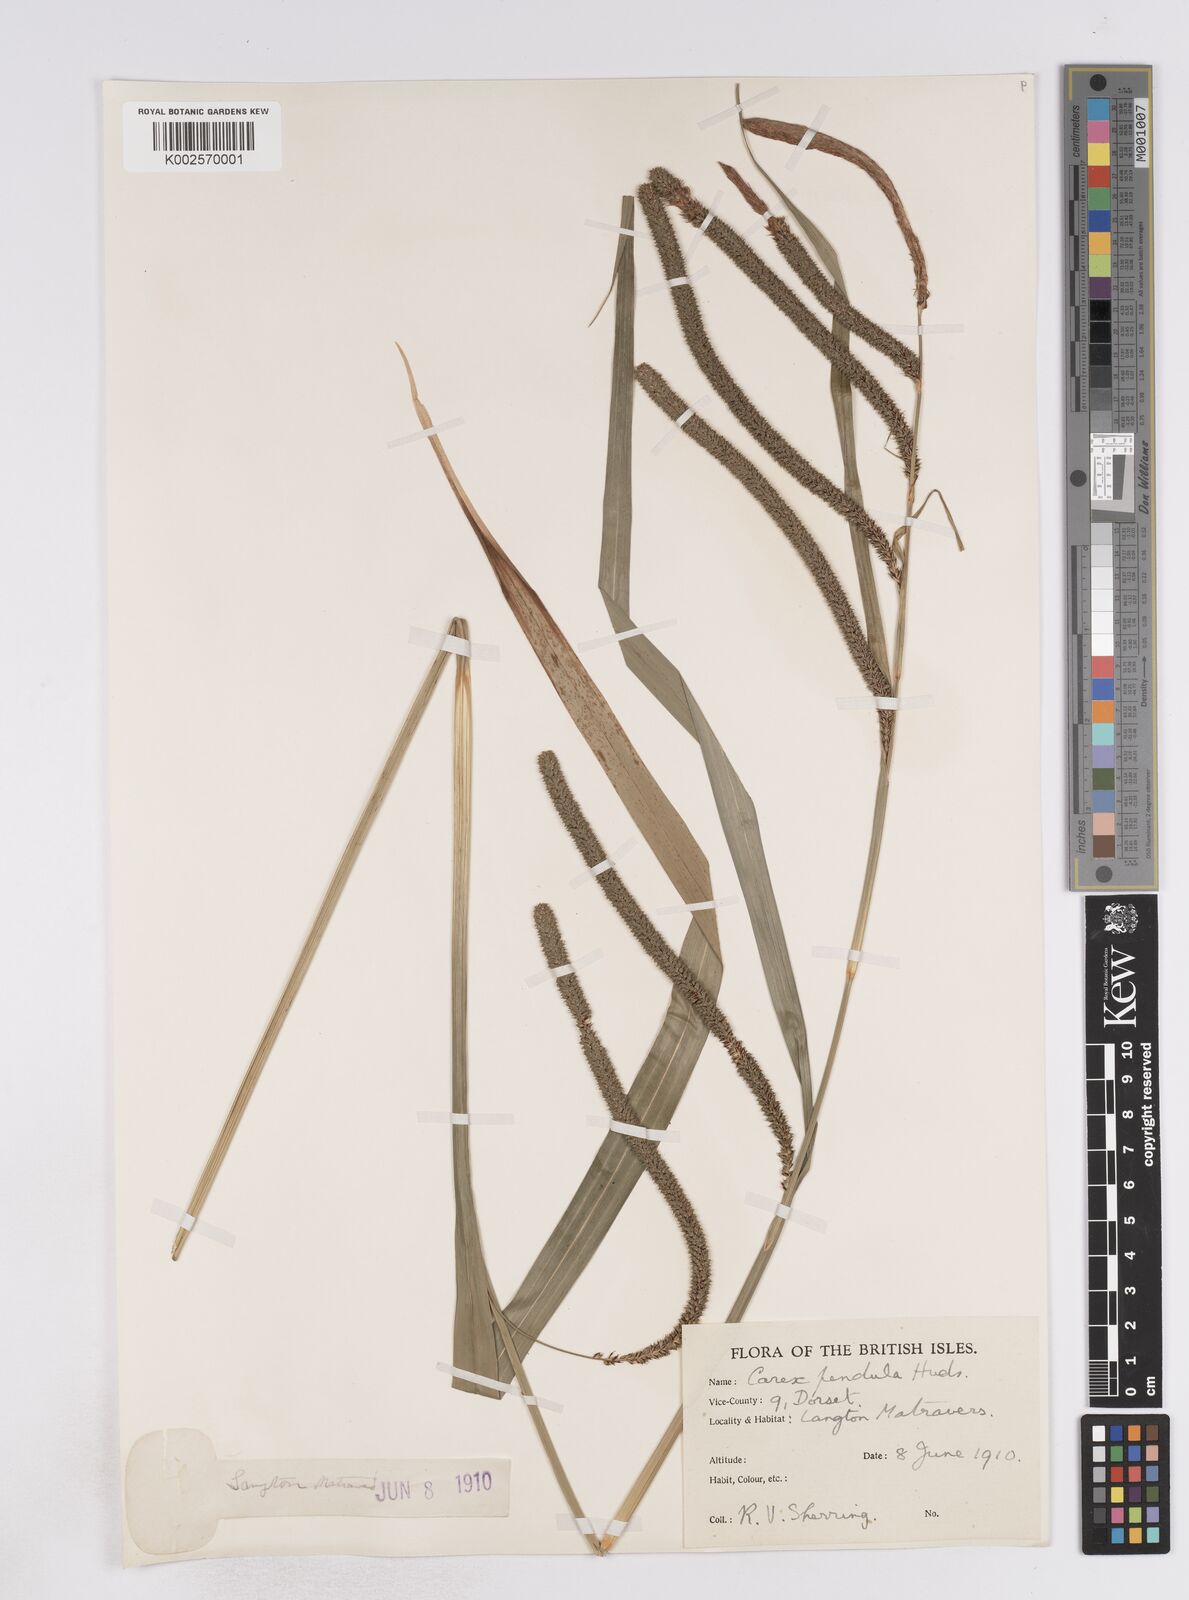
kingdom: Plantae
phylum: Tracheophyta
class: Liliopsida
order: Poales
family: Cyperaceae
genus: Carex
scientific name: Carex pendula
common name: Pendulous sedge
